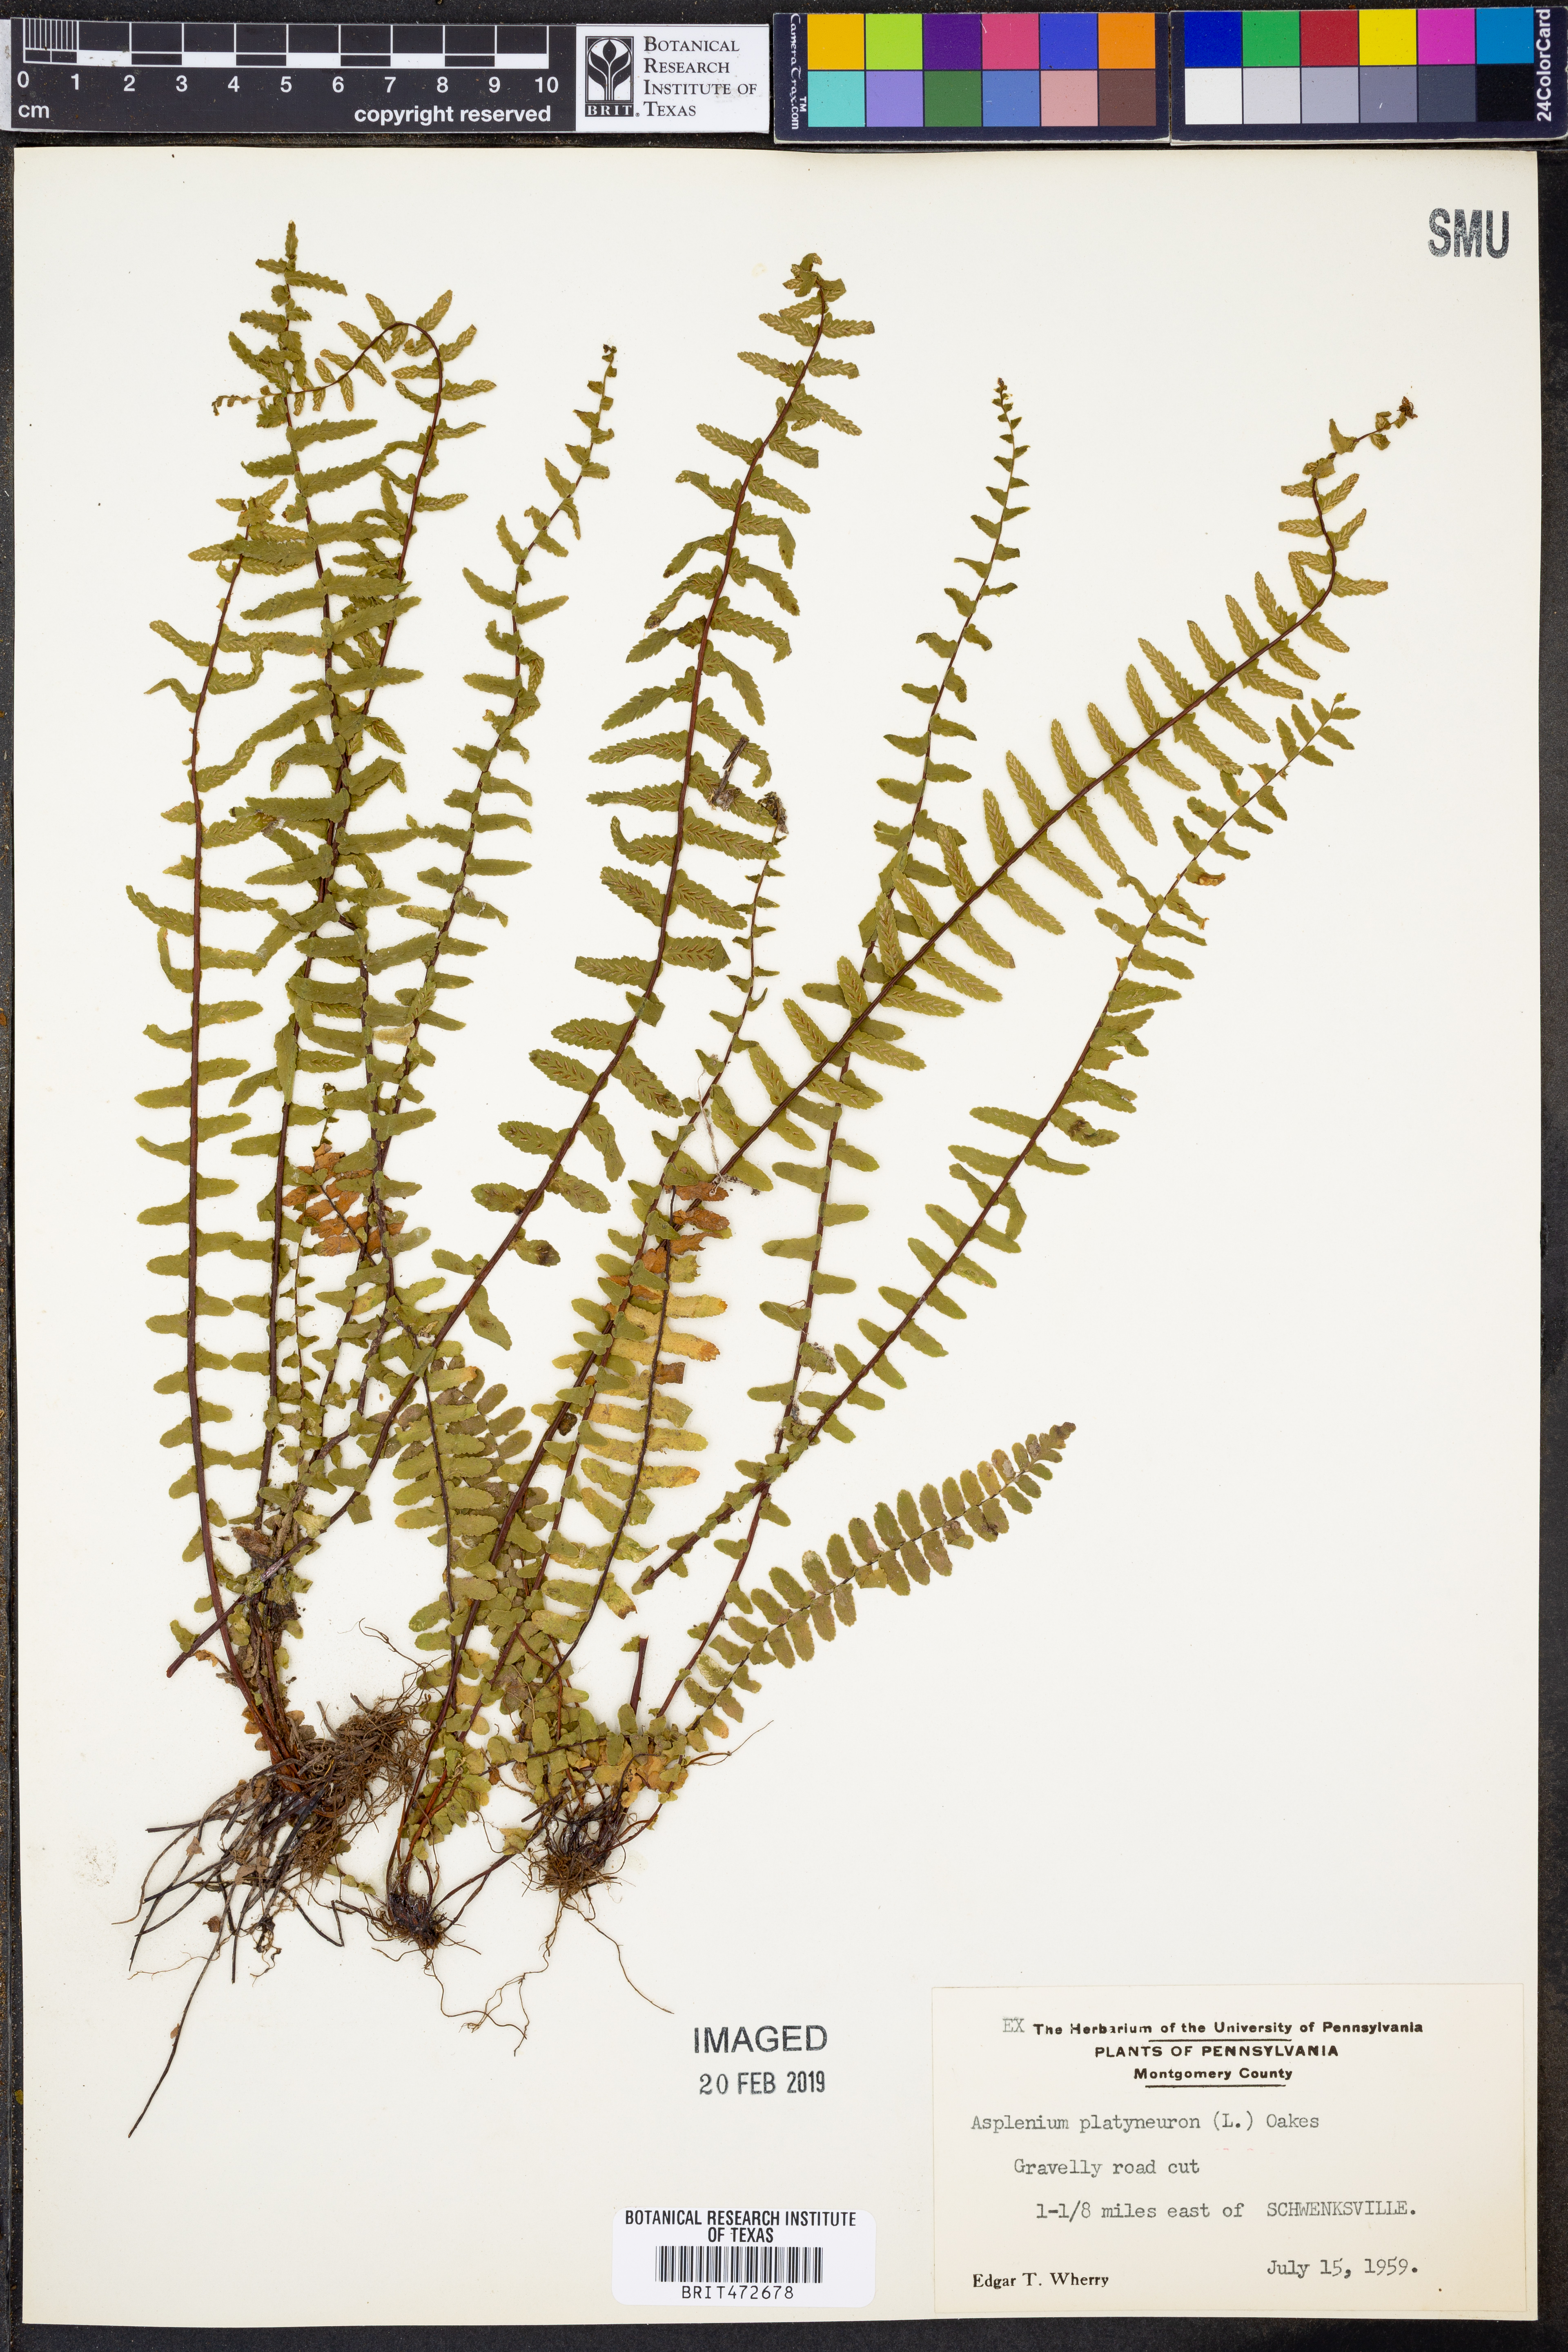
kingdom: Plantae
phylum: Tracheophyta
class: Polypodiopsida
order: Polypodiales
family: Aspleniaceae
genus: Asplenium
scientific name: Asplenium platyneuron
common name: Ebony spleenwort
